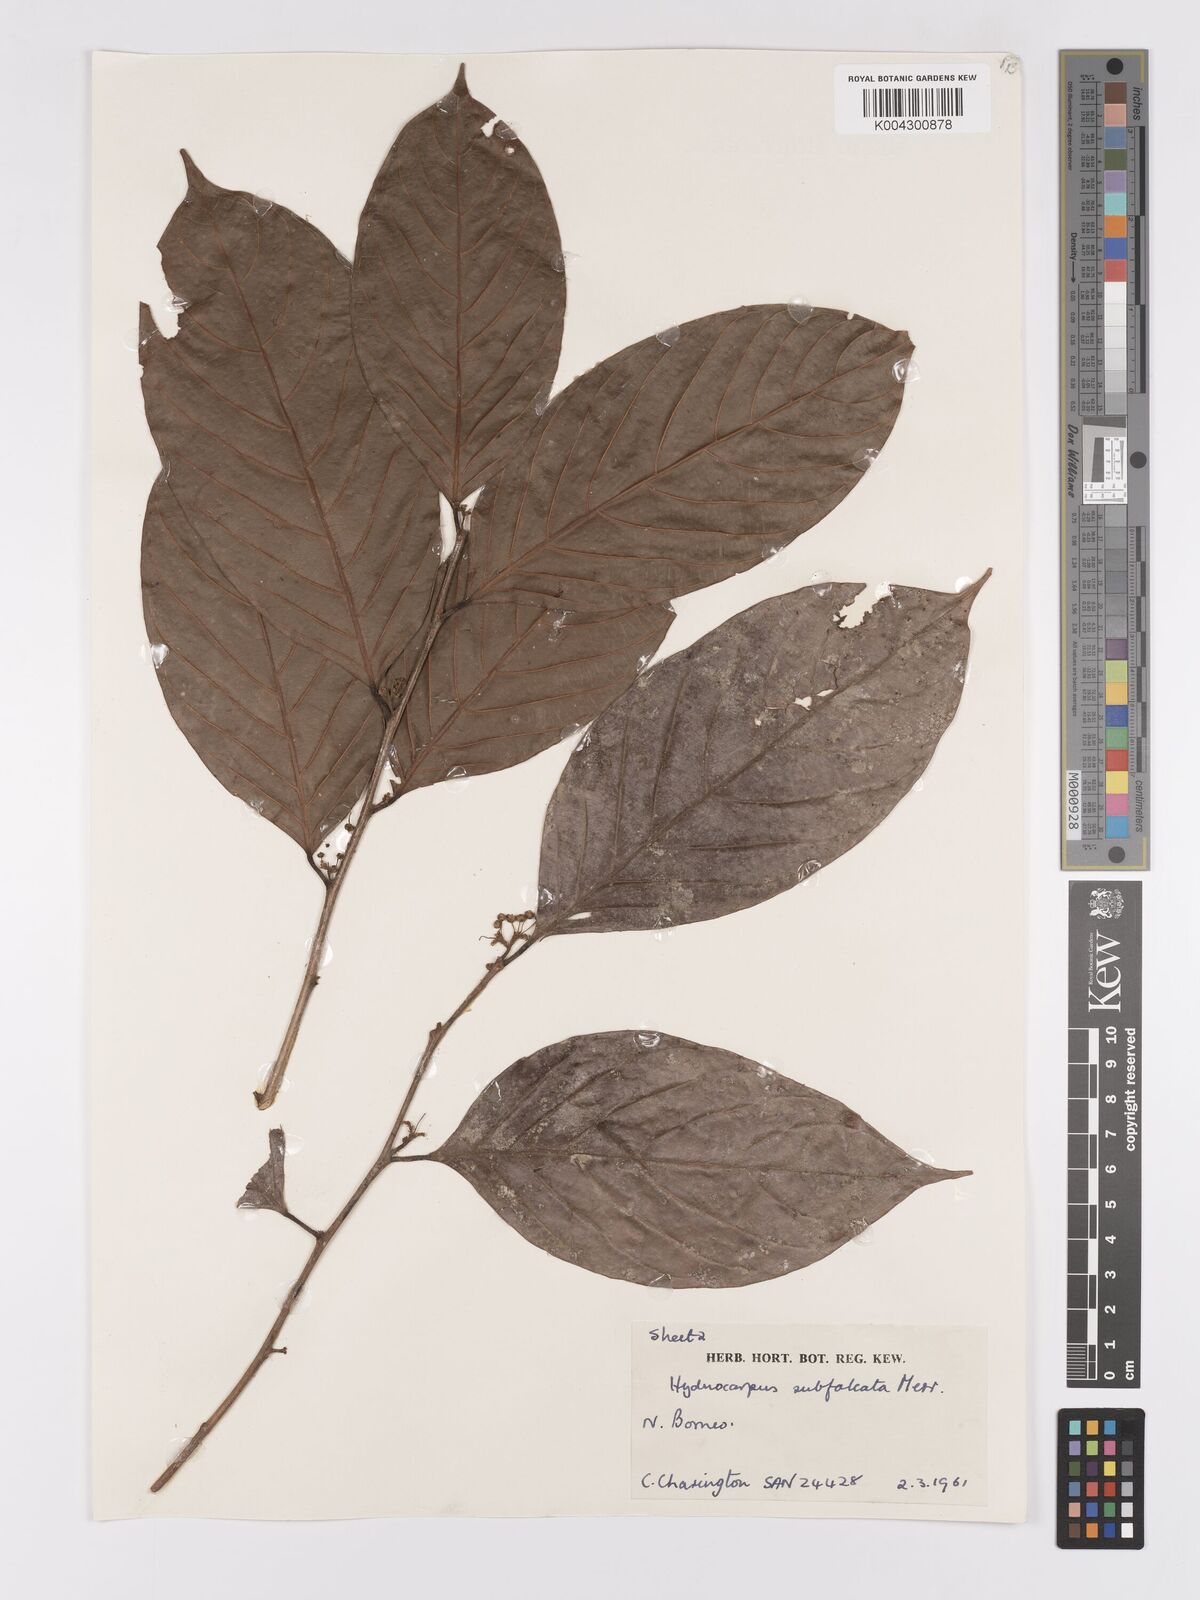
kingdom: Plantae
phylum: Tracheophyta
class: Magnoliopsida
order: Malpighiales
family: Achariaceae
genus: Hydnocarpus
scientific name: Hydnocarpus subfalcatus
